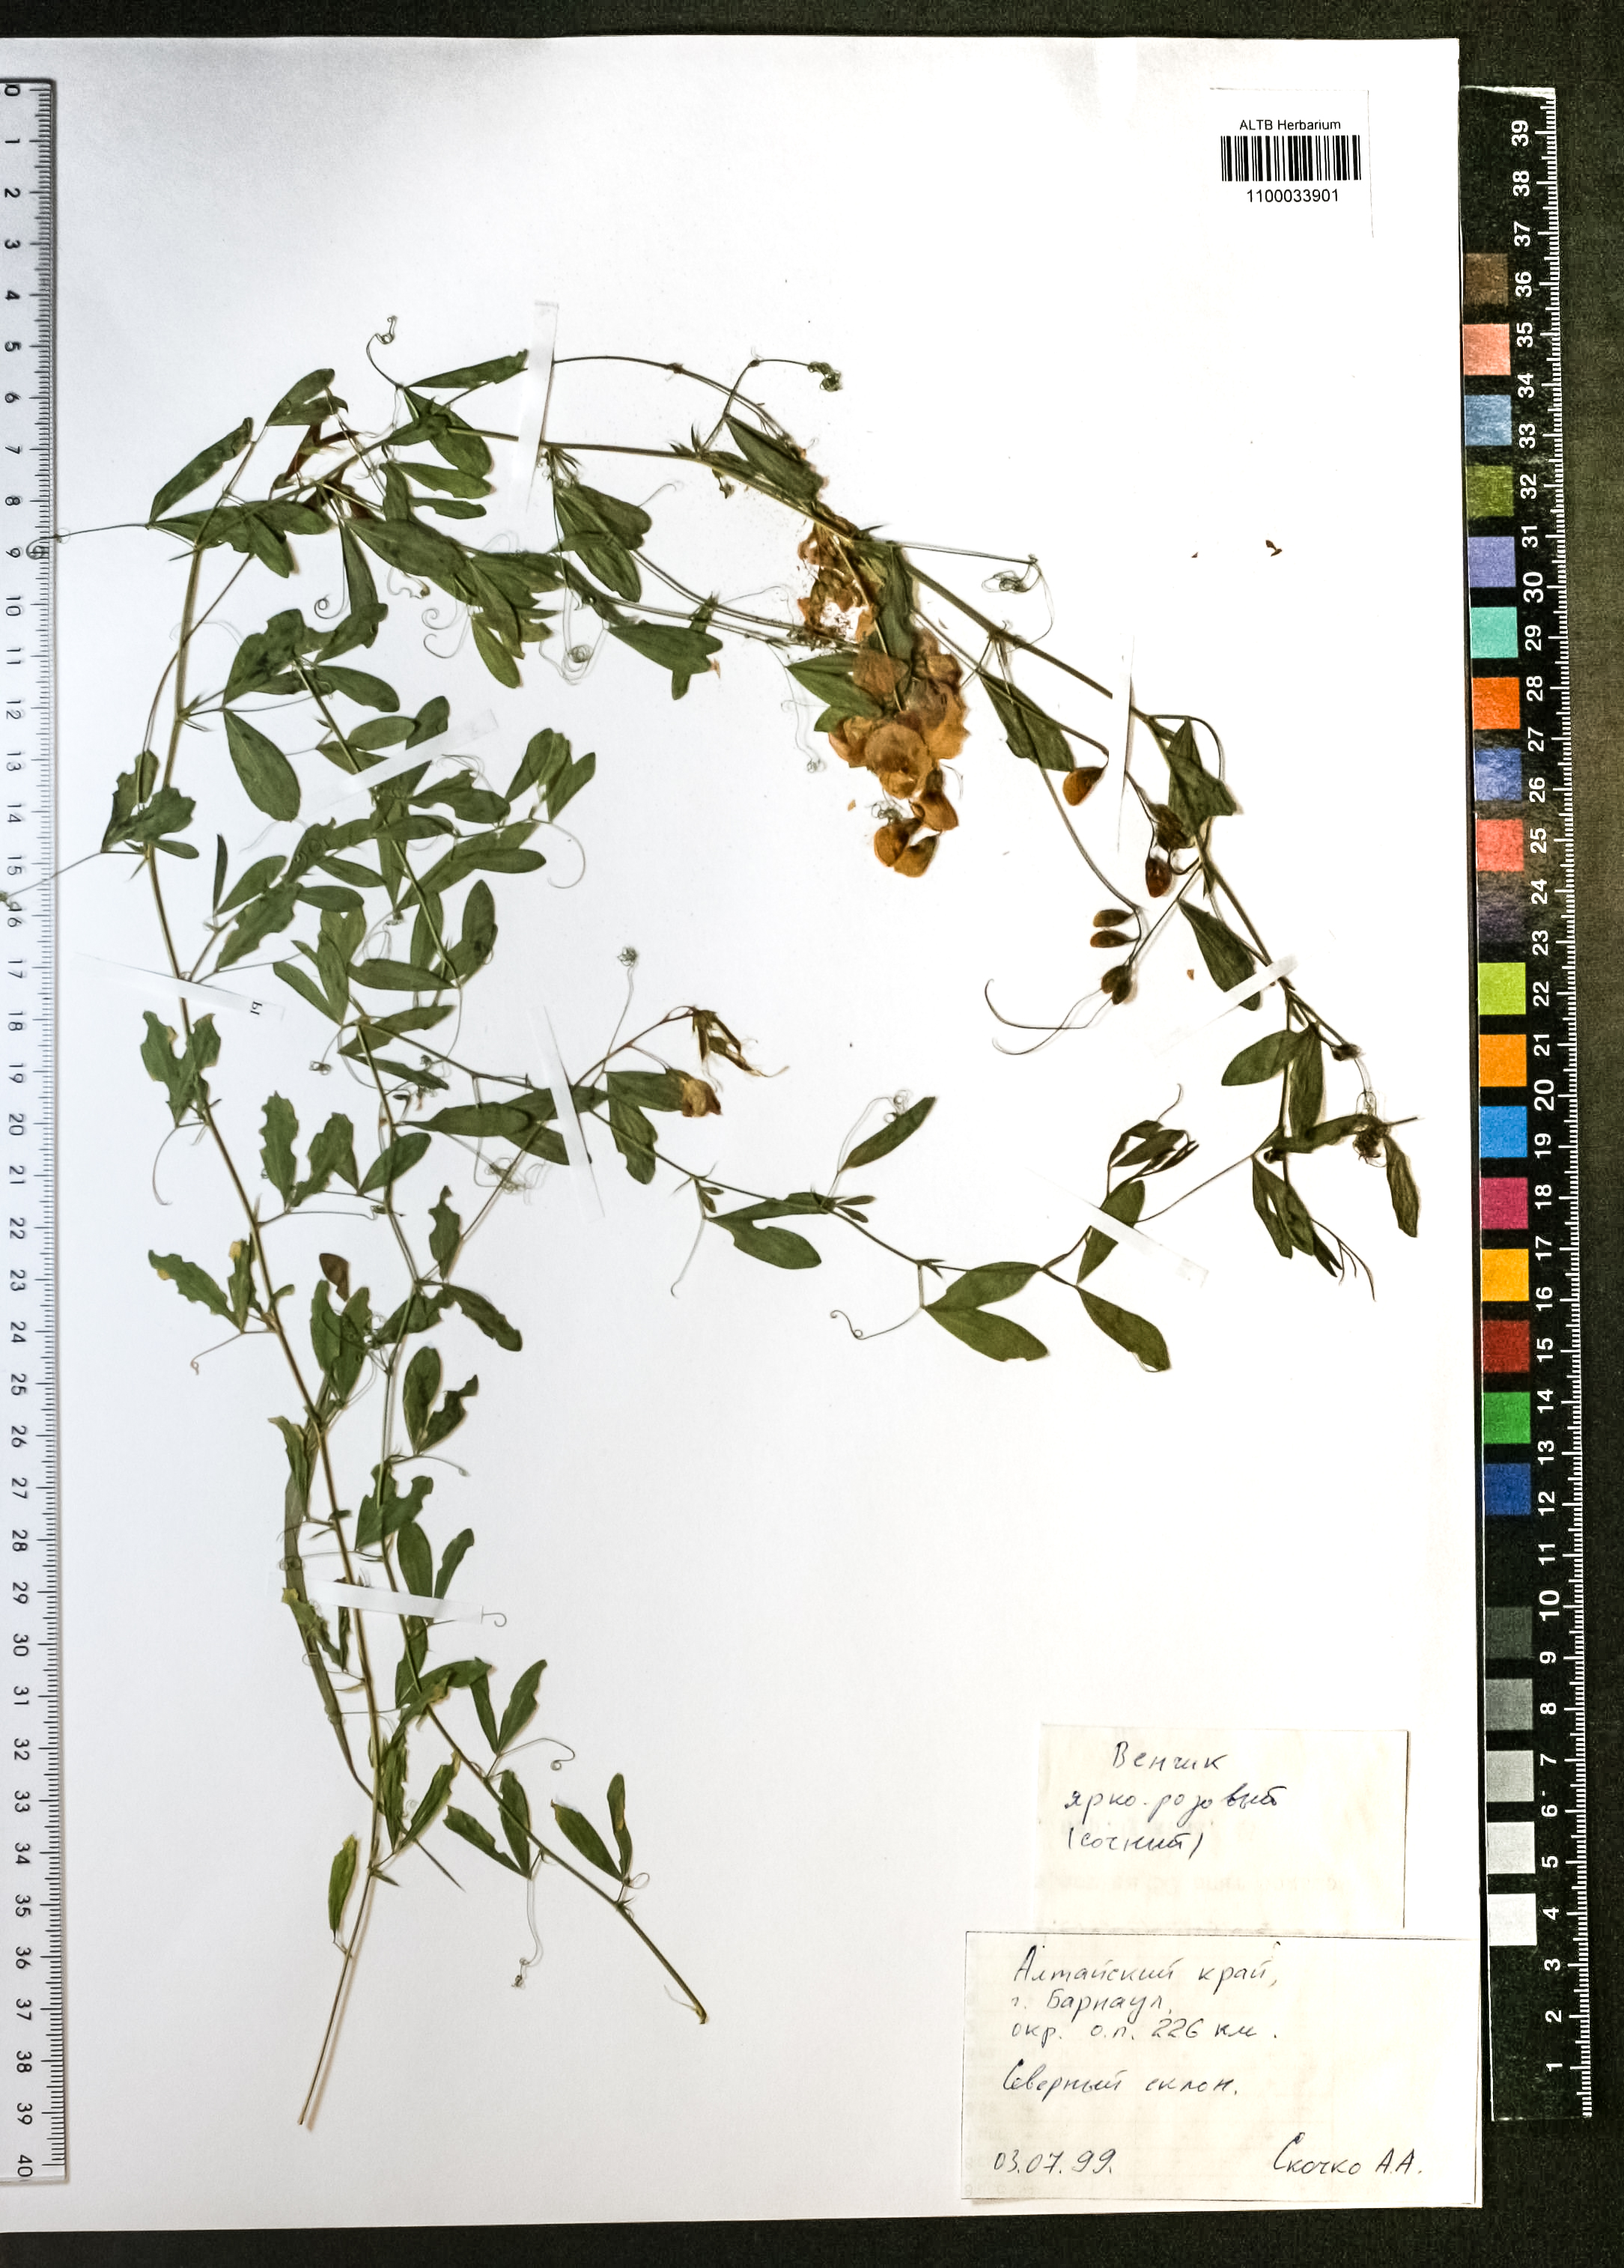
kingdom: Plantae
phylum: Tracheophyta
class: Magnoliopsida
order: Fabales
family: Fabaceae
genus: Lathyrus
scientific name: Lathyrus tuberosus
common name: Tuberous pea
